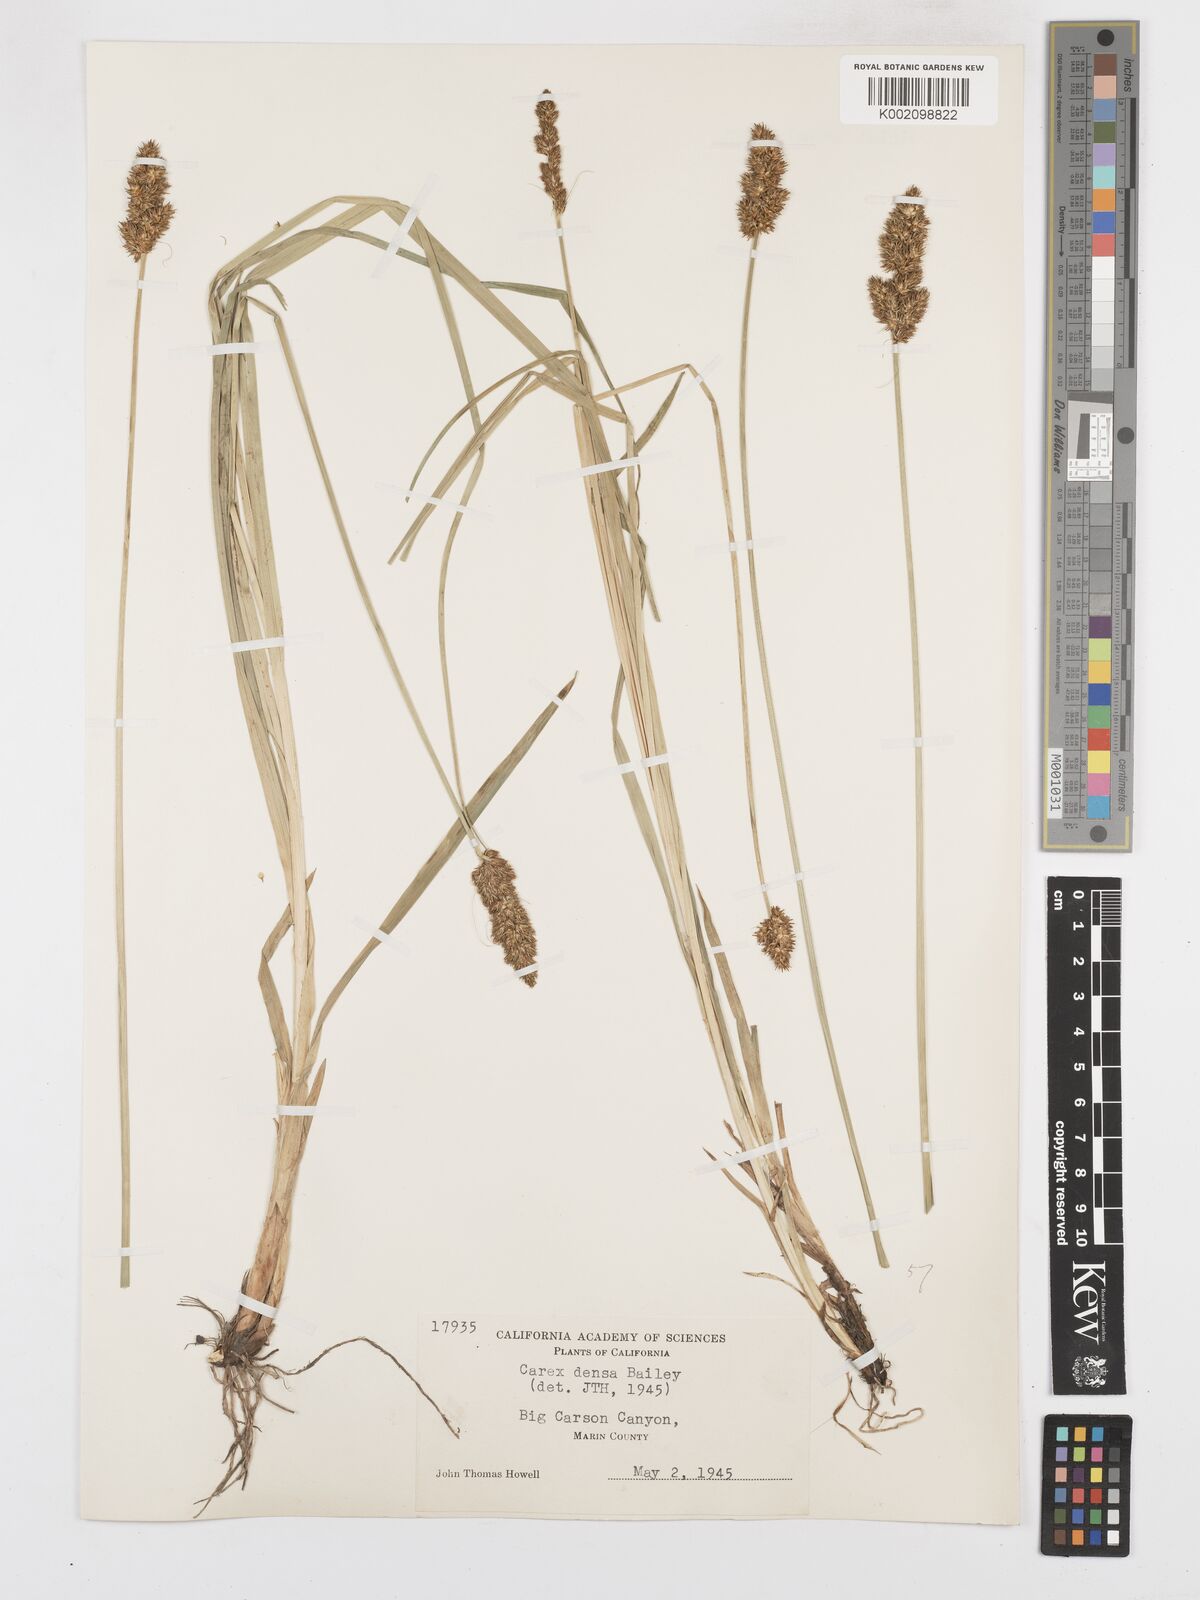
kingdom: Plantae
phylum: Tracheophyta
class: Liliopsida
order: Poales
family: Cyperaceae
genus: Carex
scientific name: Carex densa
